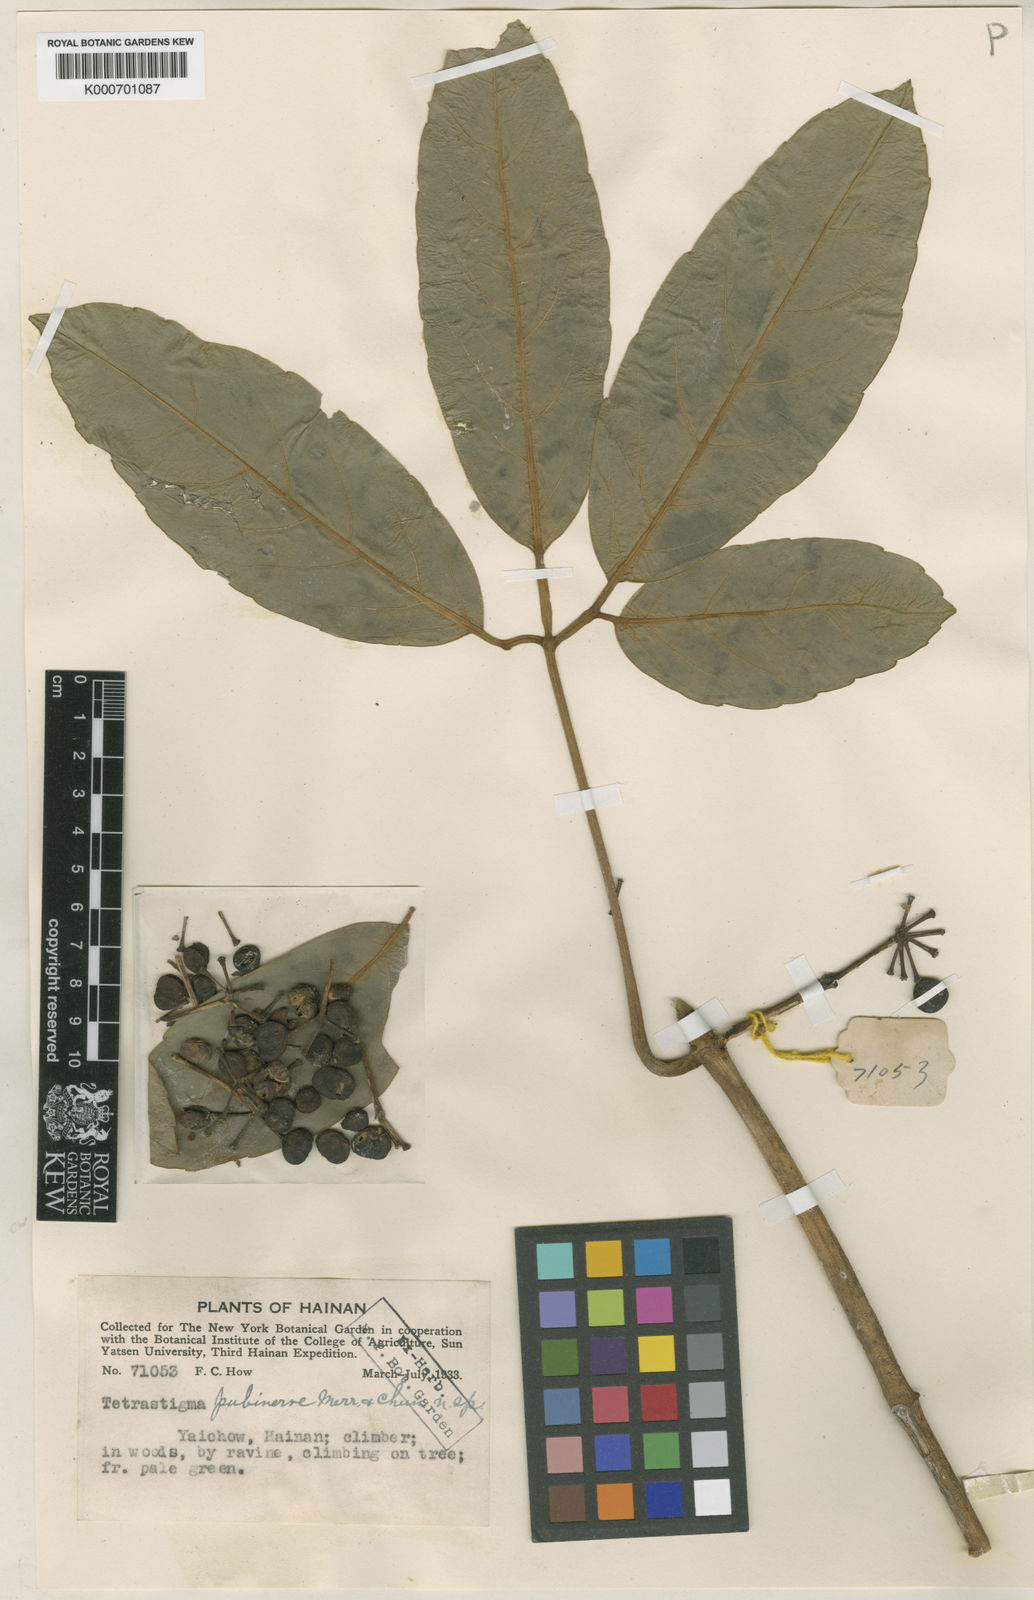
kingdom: Plantae
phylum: Tracheophyta
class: Magnoliopsida
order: Vitales
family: Vitaceae
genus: Tetrastigma
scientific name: Tetrastigma pubinerve
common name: Tetrastigma
